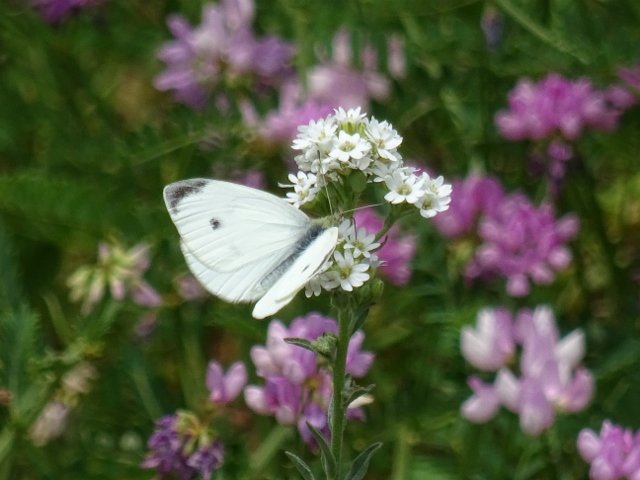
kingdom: Animalia
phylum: Arthropoda
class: Insecta
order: Lepidoptera
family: Pieridae
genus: Pieris
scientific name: Pieris rapae
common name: Cabbage White
